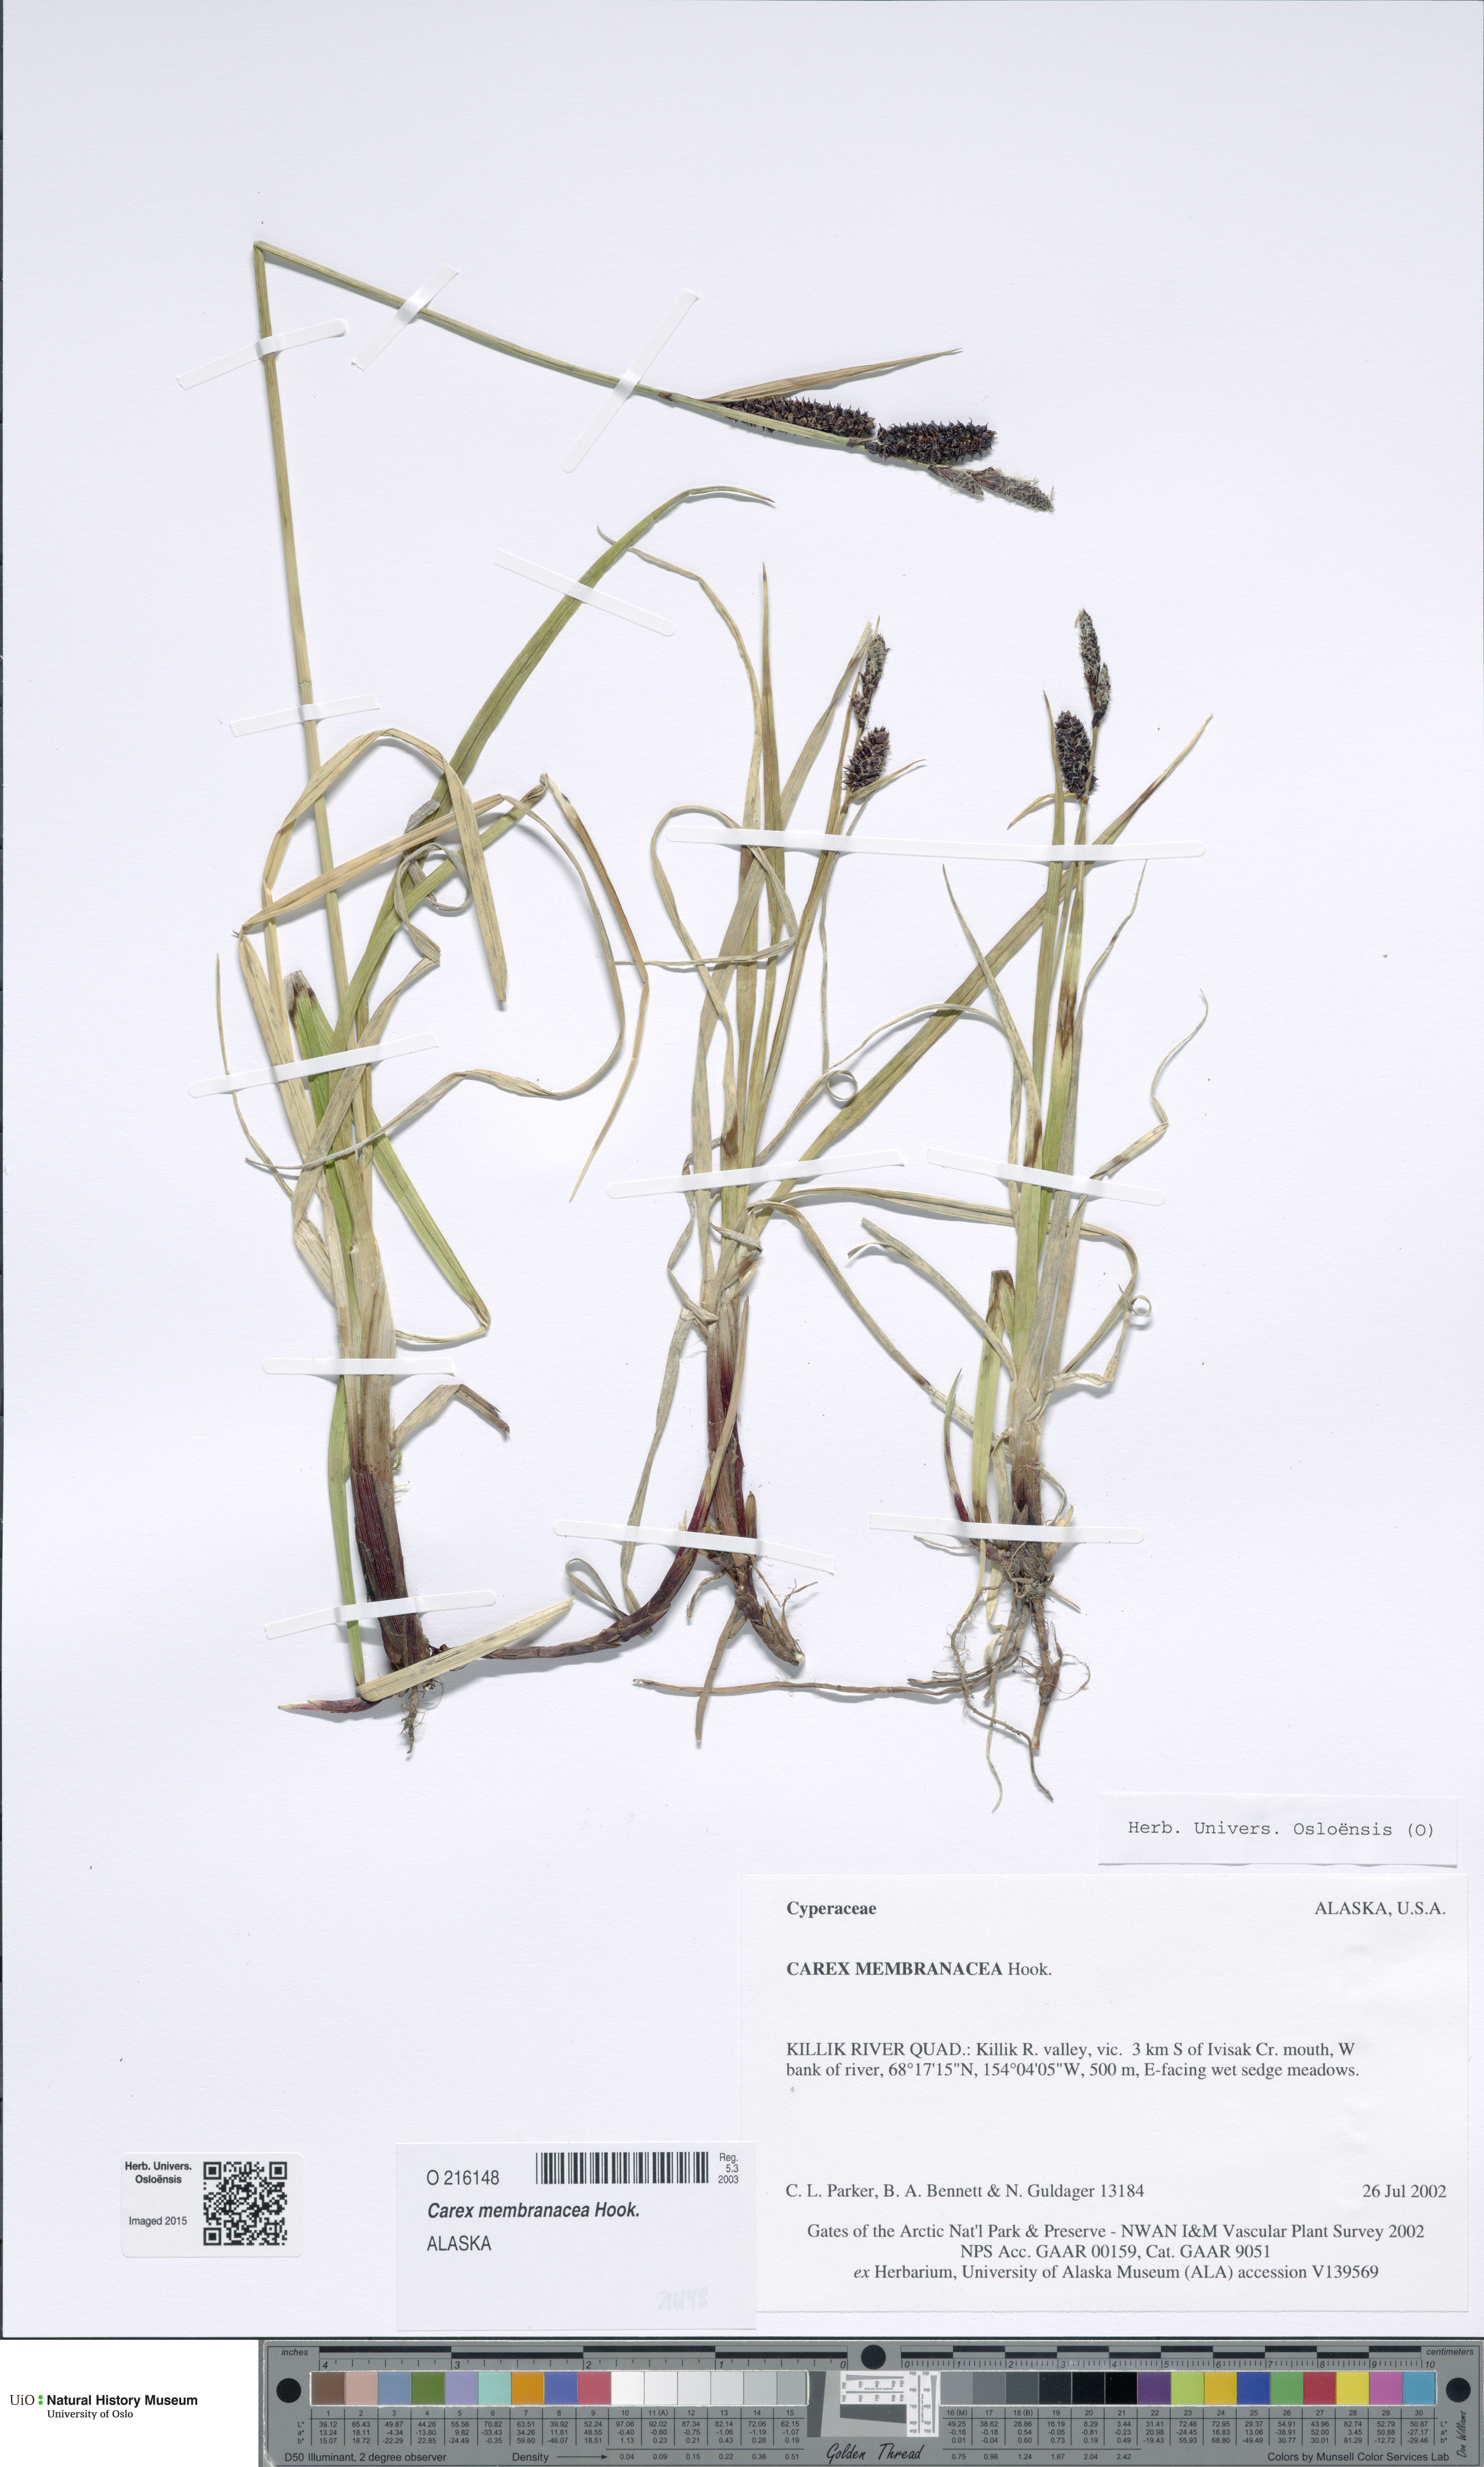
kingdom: Plantae
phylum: Tracheophyta
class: Liliopsida
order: Poales
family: Cyperaceae
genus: Carex
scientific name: Carex membranacea
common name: Fragile sedge
